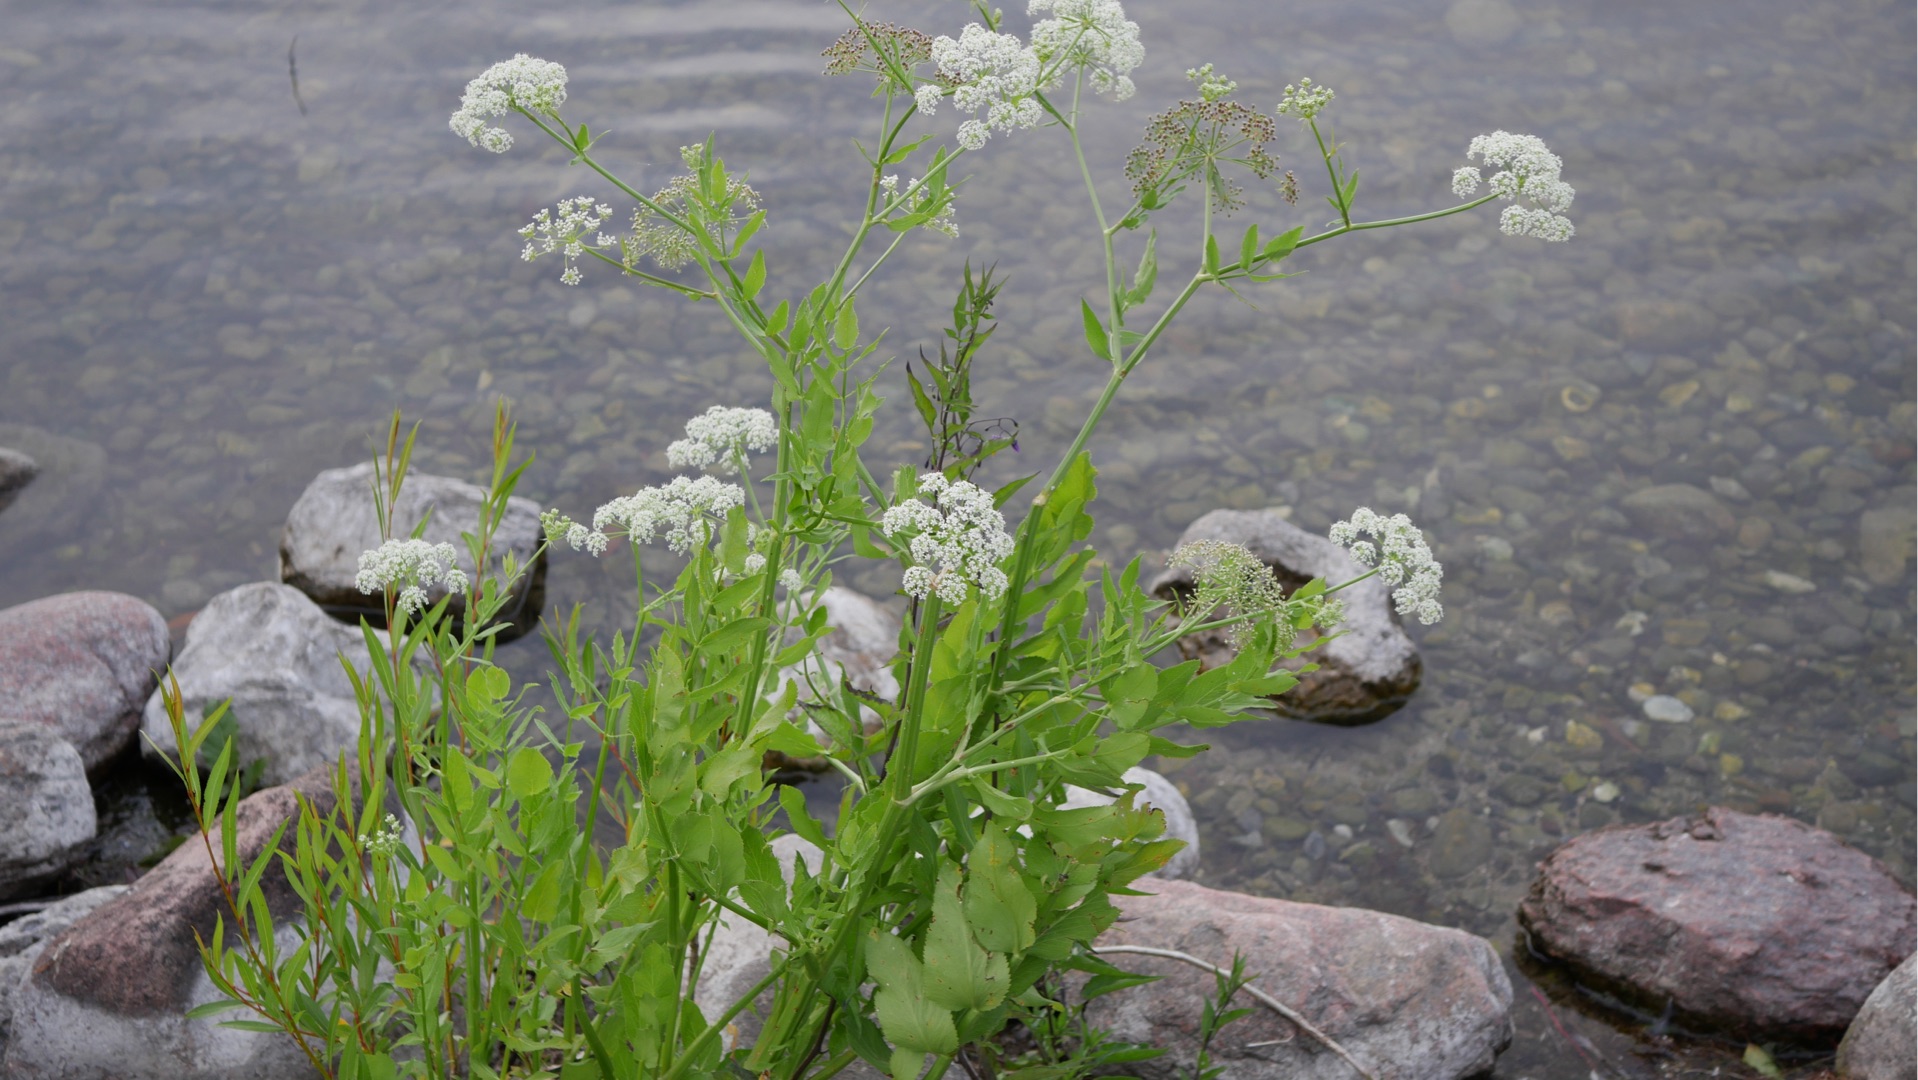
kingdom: Plantae
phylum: Tracheophyta
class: Magnoliopsida
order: Apiales
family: Apiaceae
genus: Sium
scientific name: Sium latifolium
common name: Bredbladet mærke
